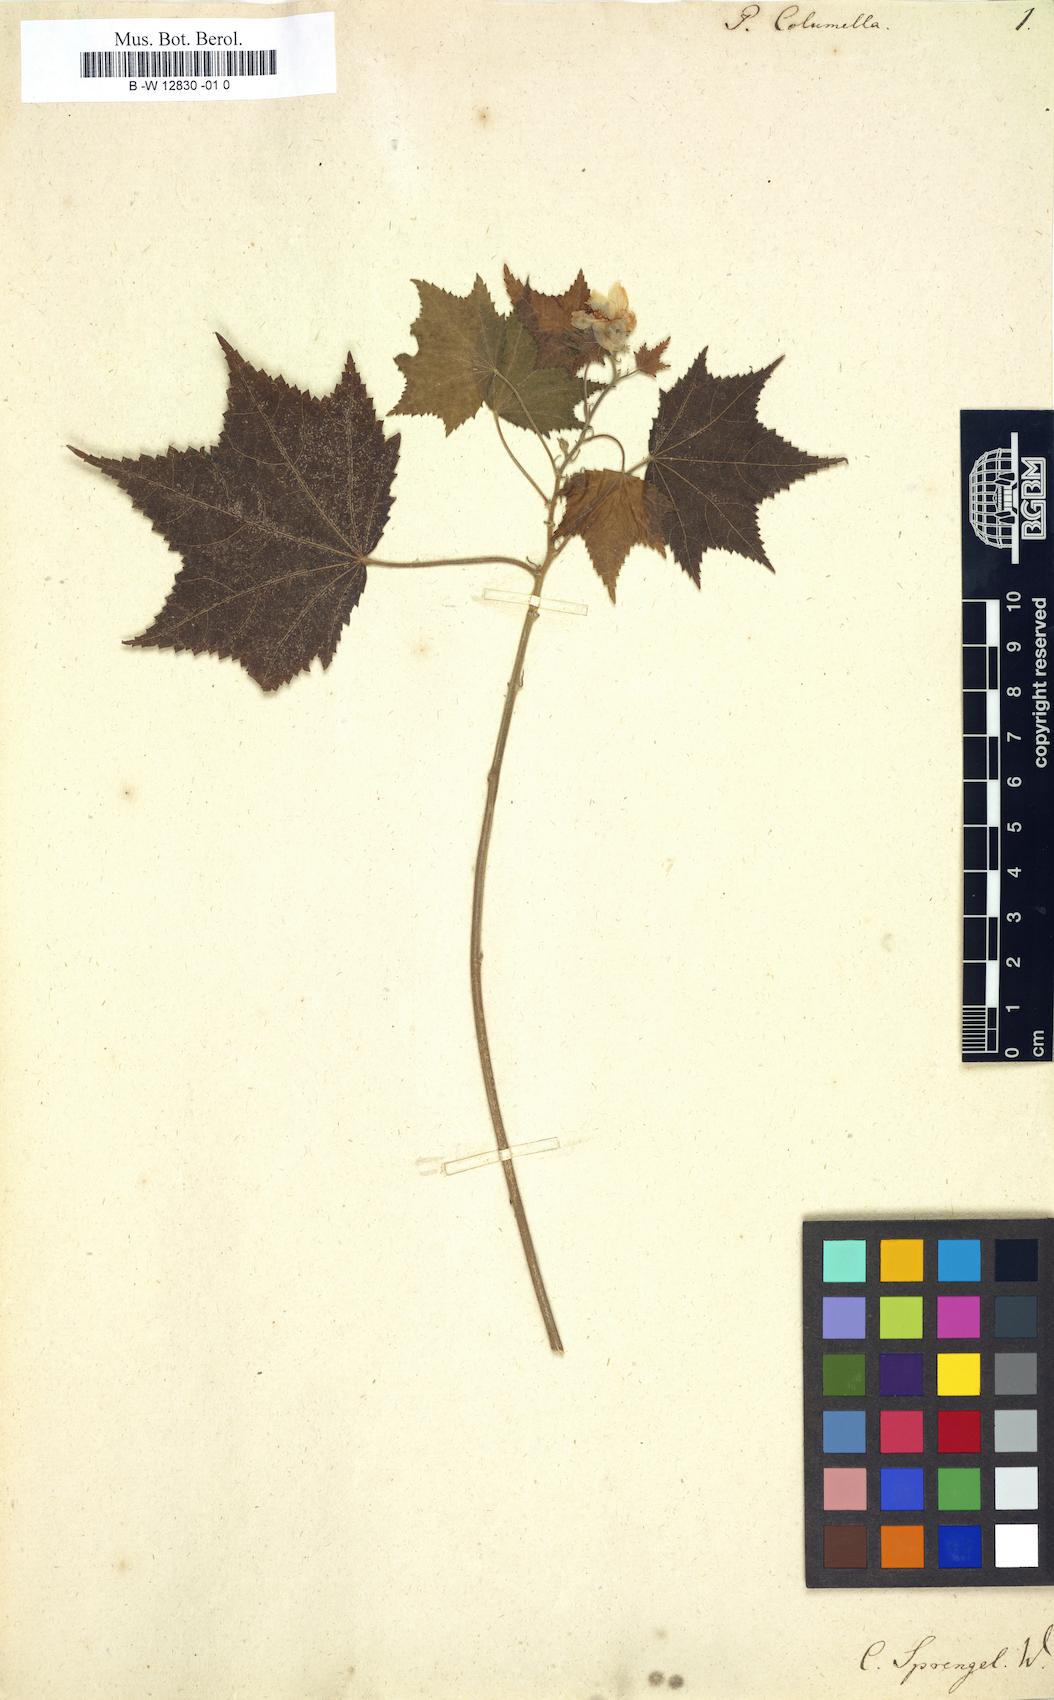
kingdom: Plantae
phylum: Tracheophyta
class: Magnoliopsida
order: Malvales
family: Malvaceae
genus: Pavonia
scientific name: Pavonia columella
